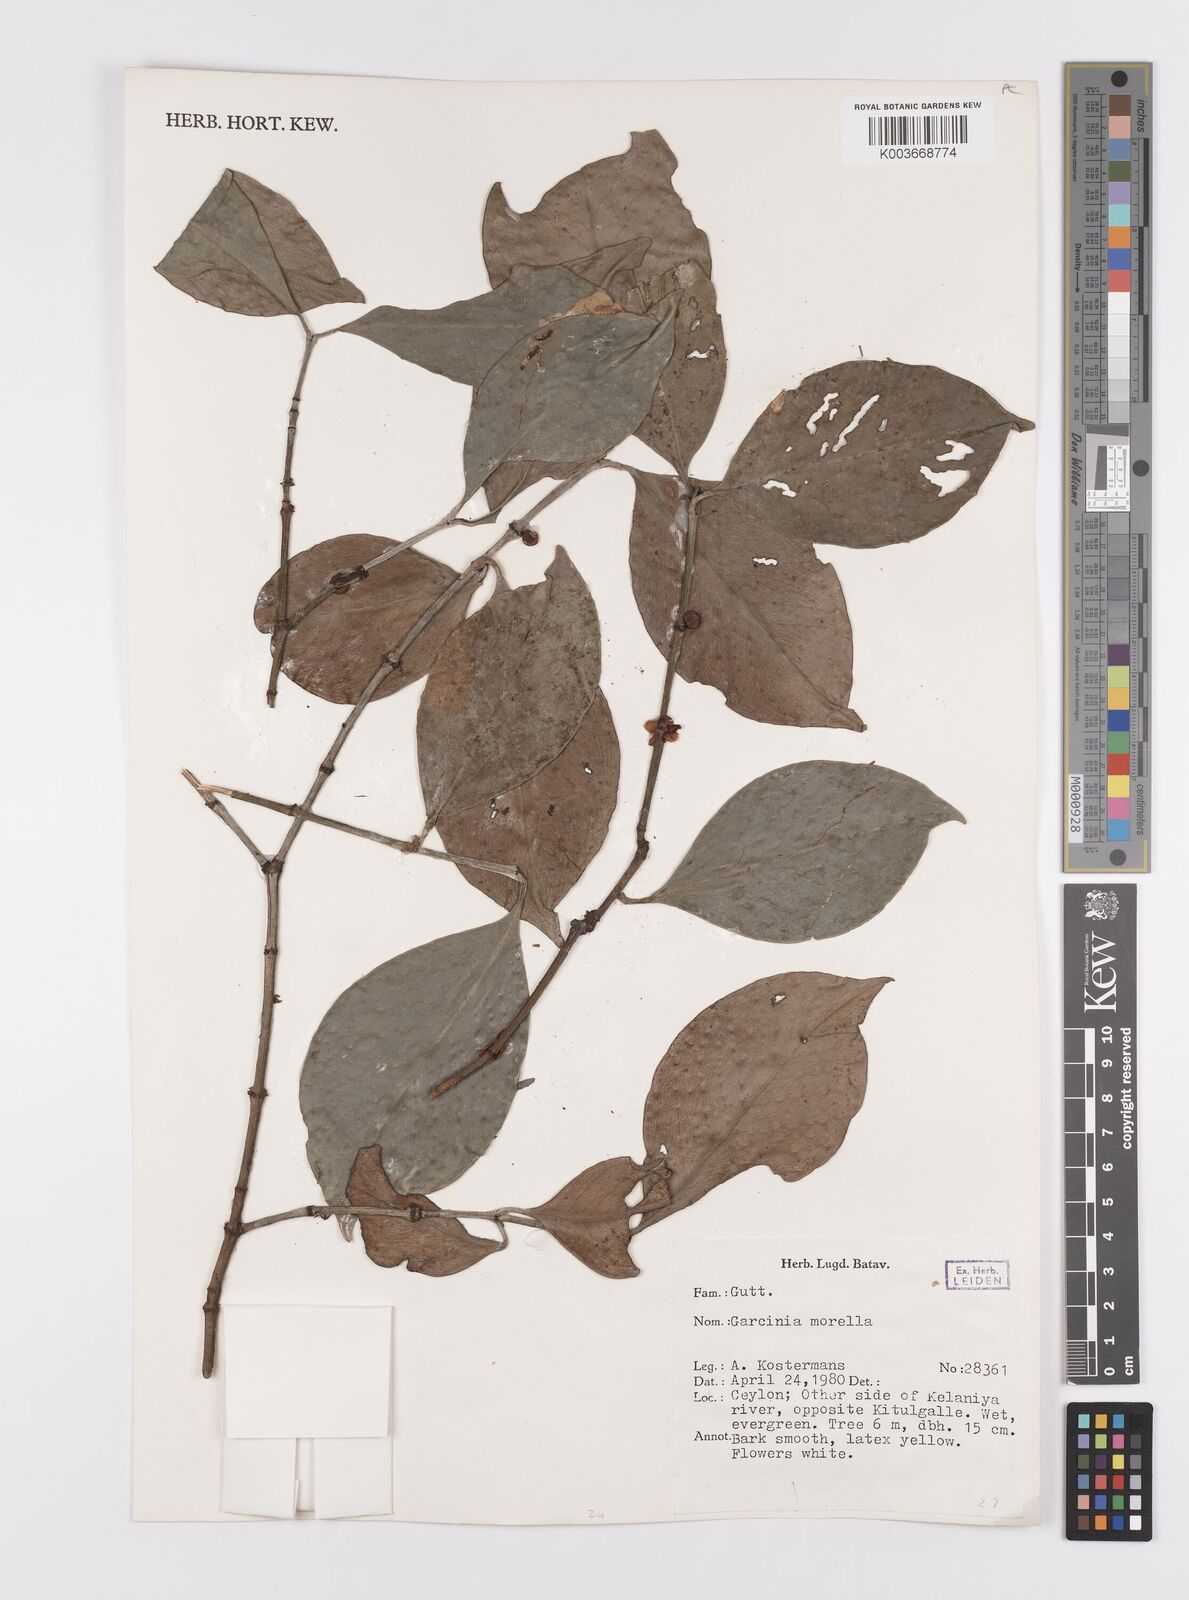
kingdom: Plantae
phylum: Tracheophyta
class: Magnoliopsida
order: Malpighiales
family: Clusiaceae
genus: Garcinia
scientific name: Garcinia morella
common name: Indian gamboge-tree
